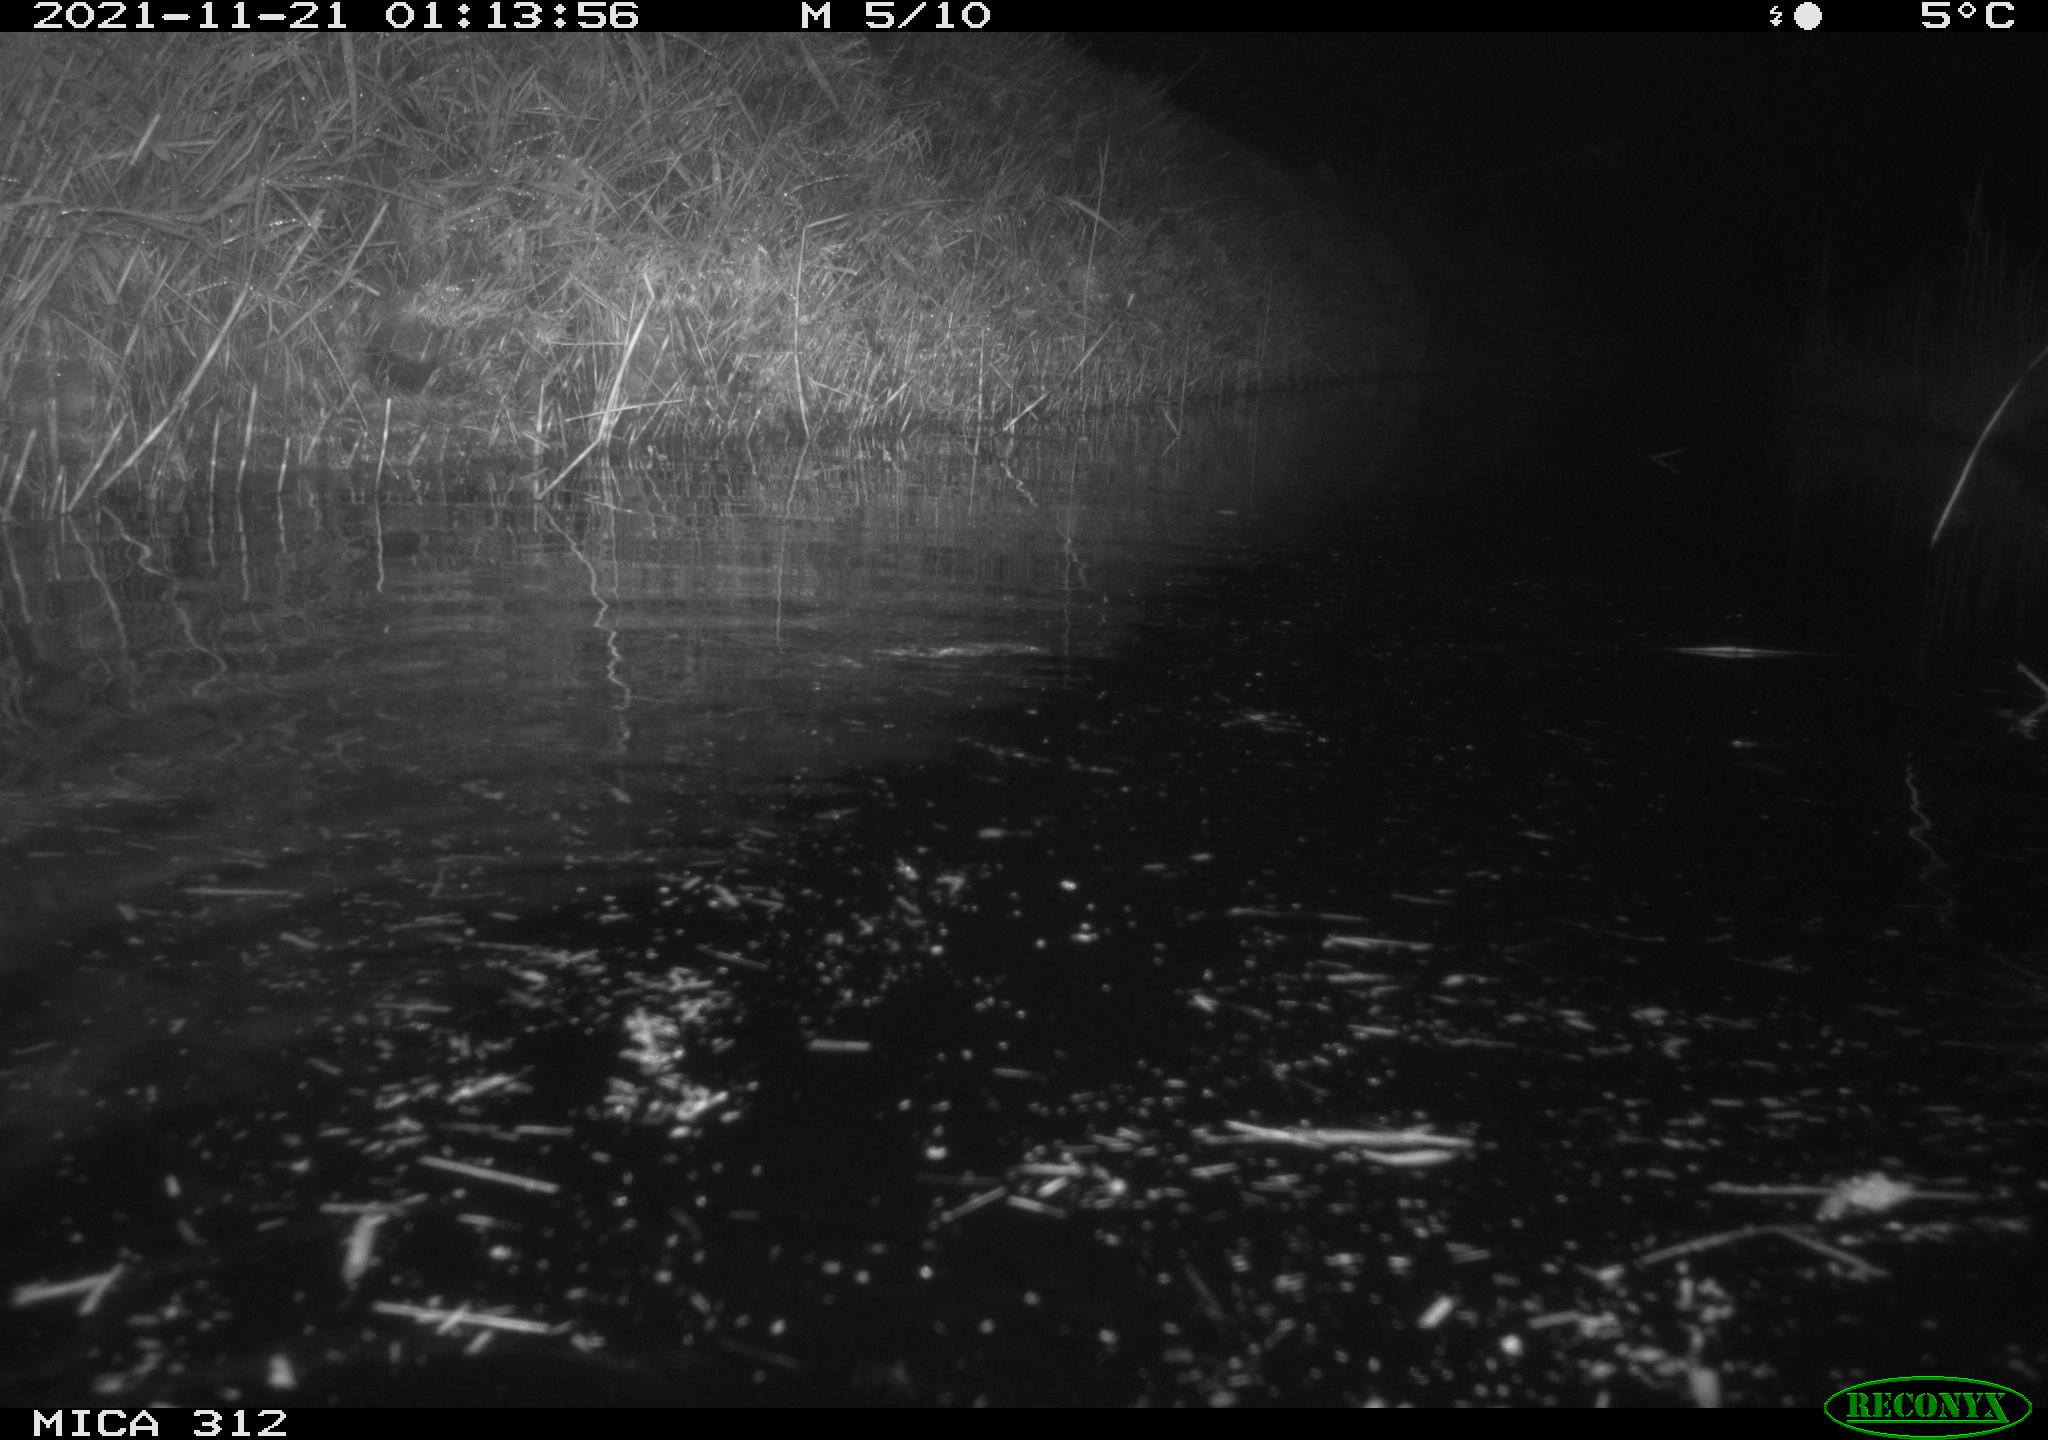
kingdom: Animalia
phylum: Chordata
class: Mammalia
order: Rodentia
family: Muridae
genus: Rattus
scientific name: Rattus norvegicus
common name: Brown rat
